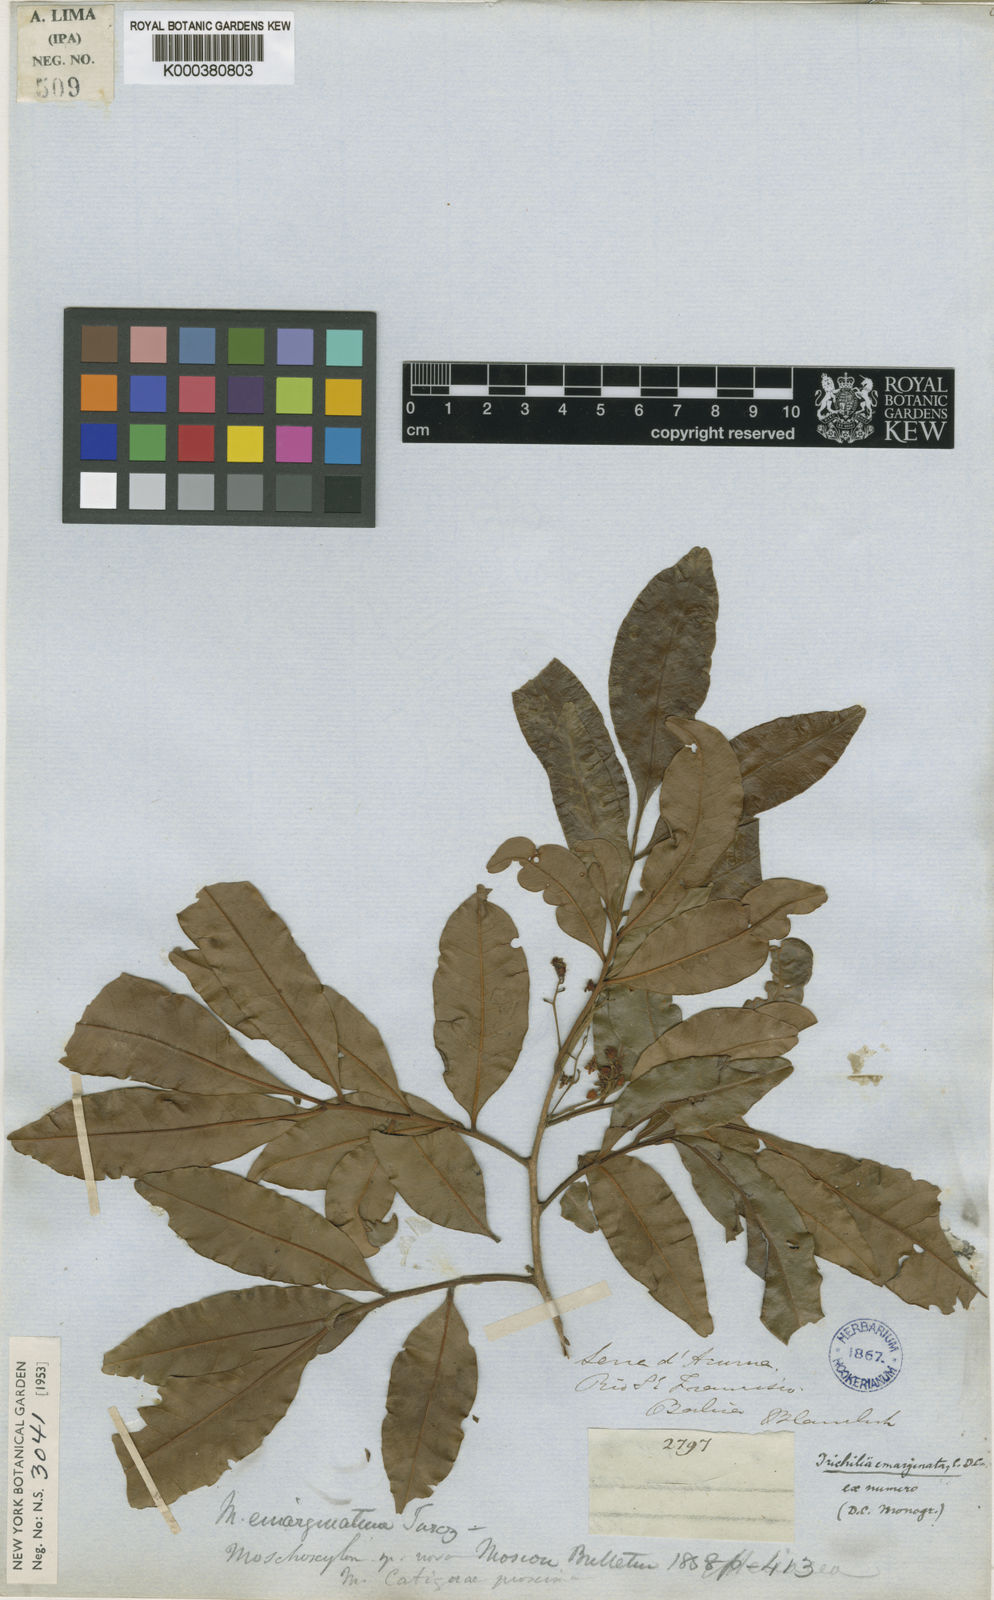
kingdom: Plantae
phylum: Tracheophyta
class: Magnoliopsida
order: Sapindales
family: Meliaceae
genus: Trichilia
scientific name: Trichilia emarginata
